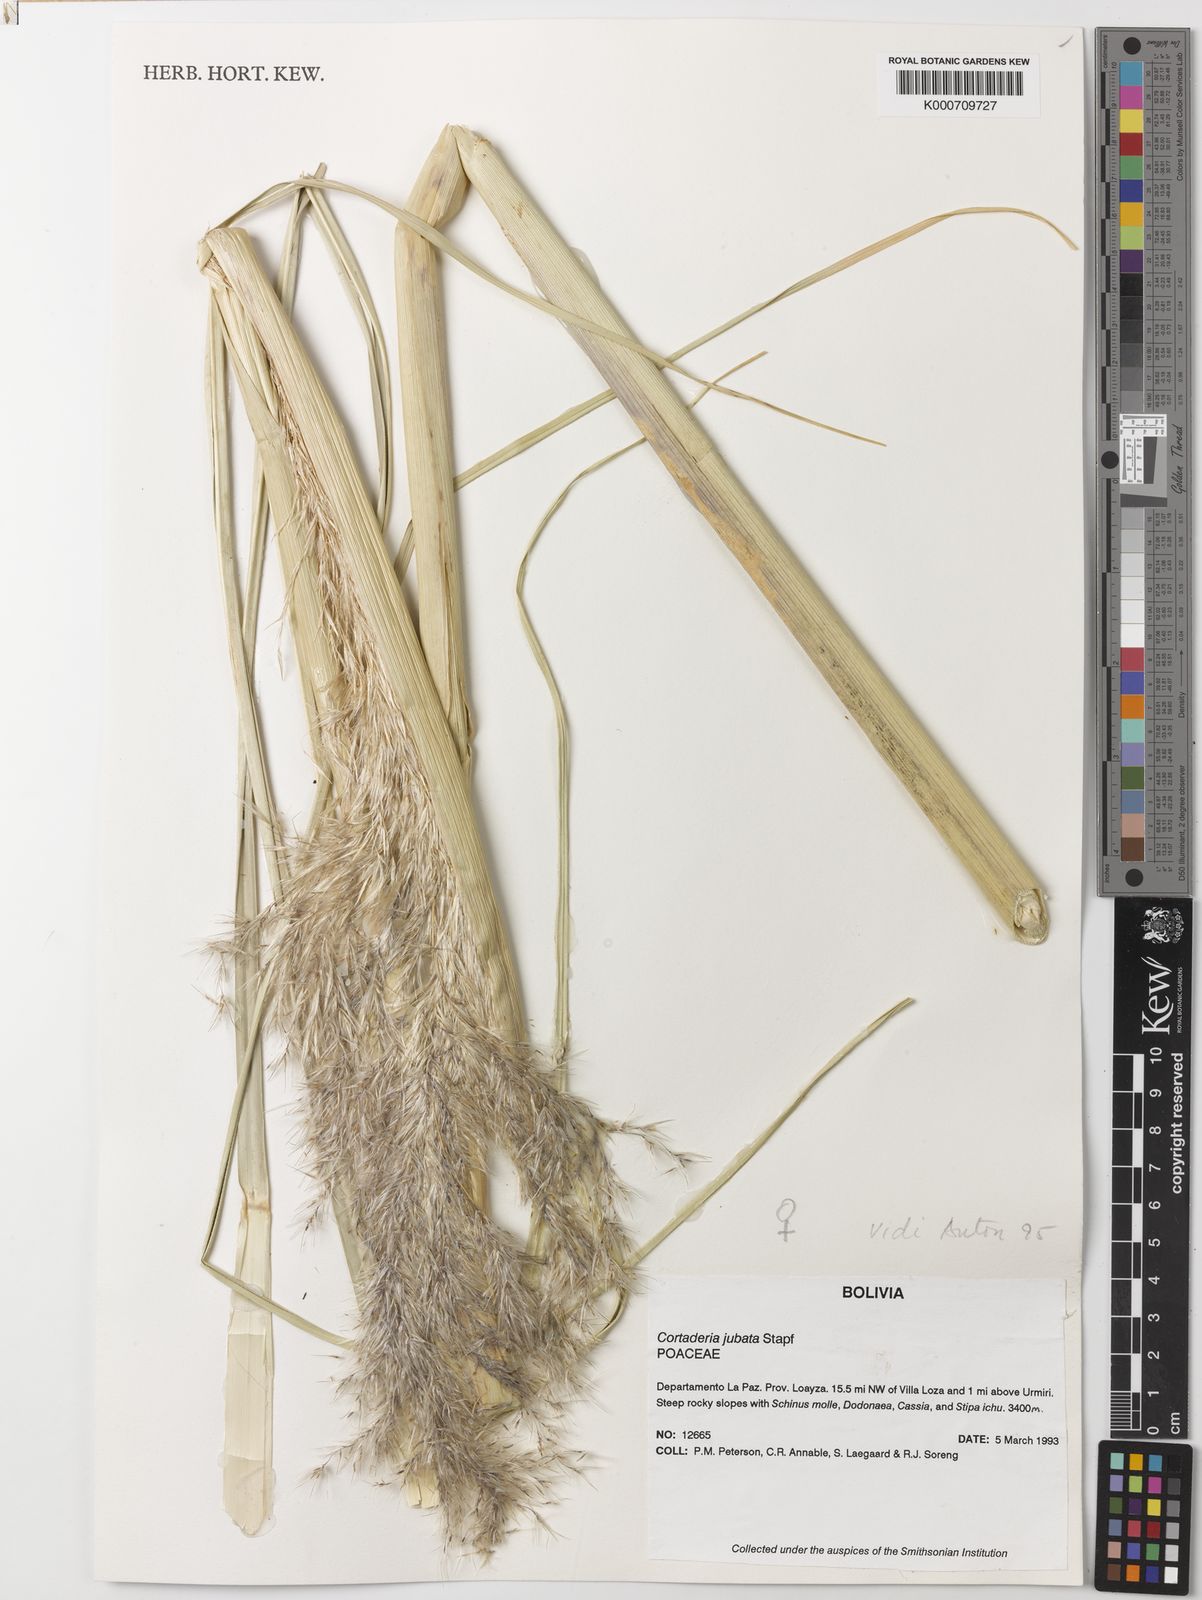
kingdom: Plantae
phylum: Tracheophyta
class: Liliopsida
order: Poales
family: Poaceae
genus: Cortaderia
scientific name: Cortaderia jubata
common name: Purple pampas grass
